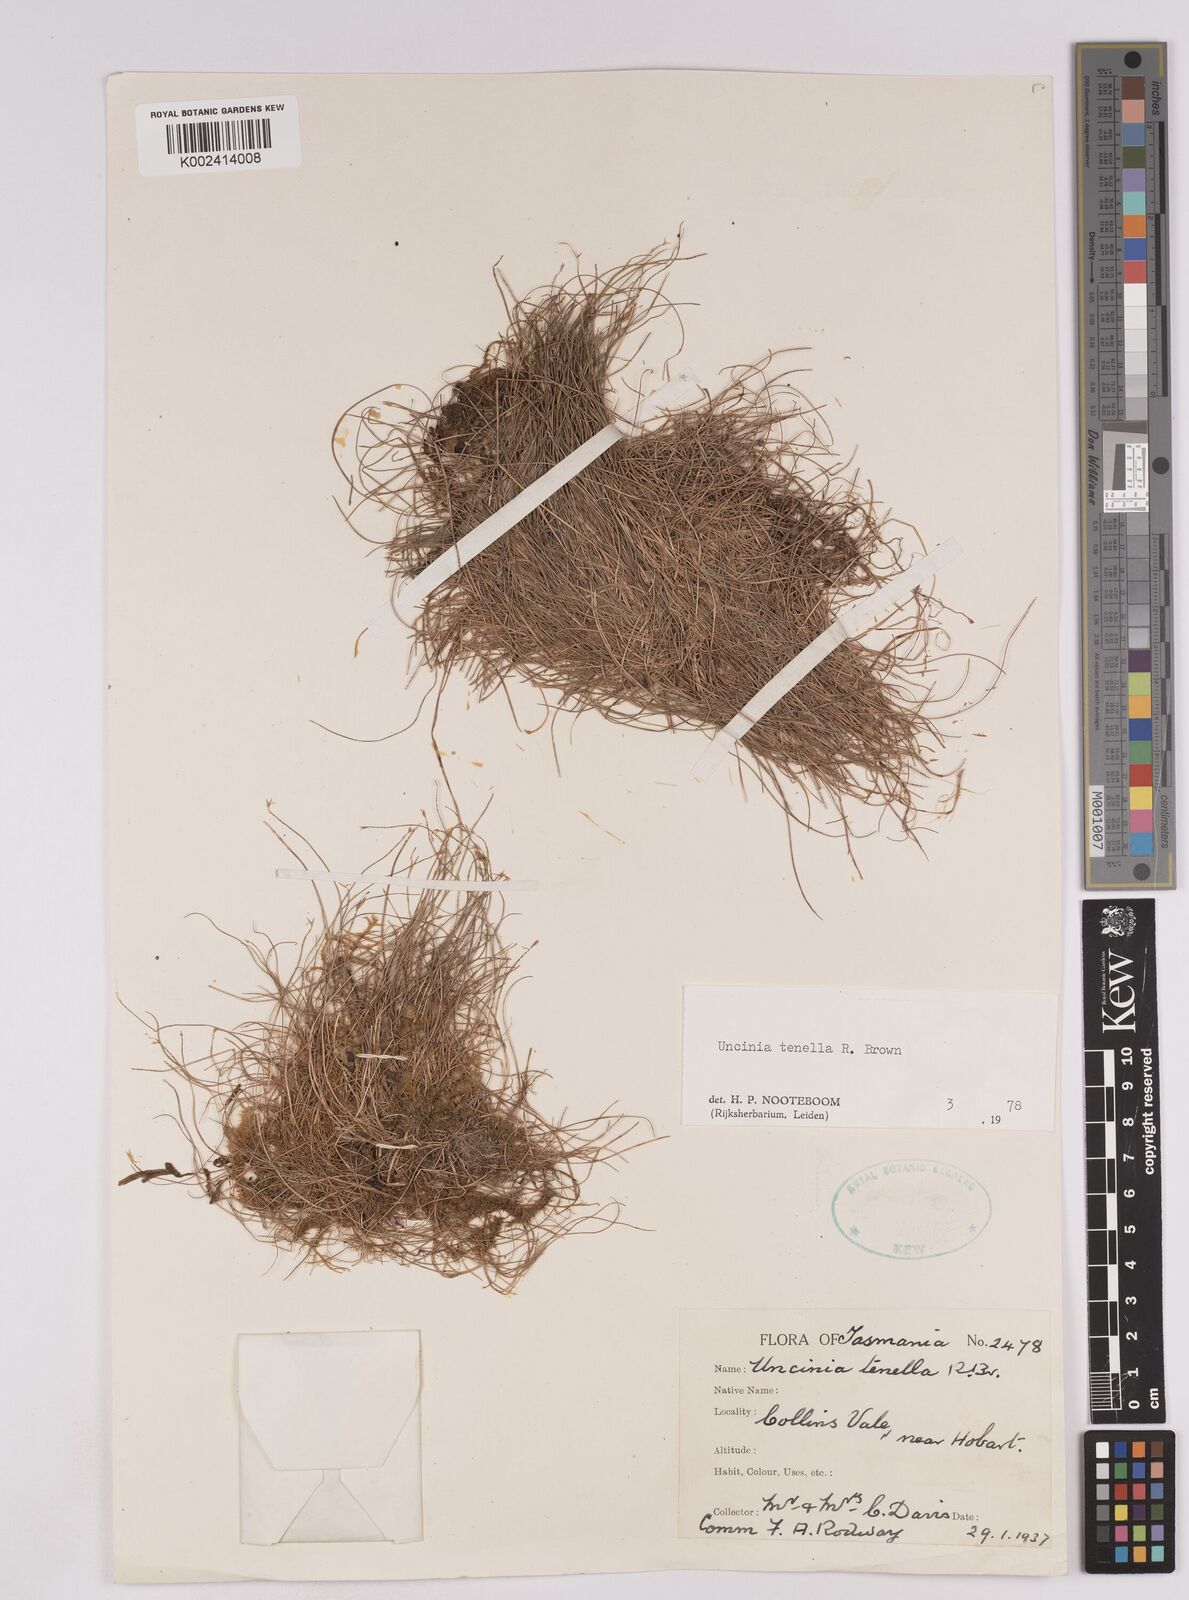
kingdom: Plantae
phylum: Tracheophyta
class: Liliopsida
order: Poales
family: Cyperaceae
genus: Carex
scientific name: Carex austrotenella
